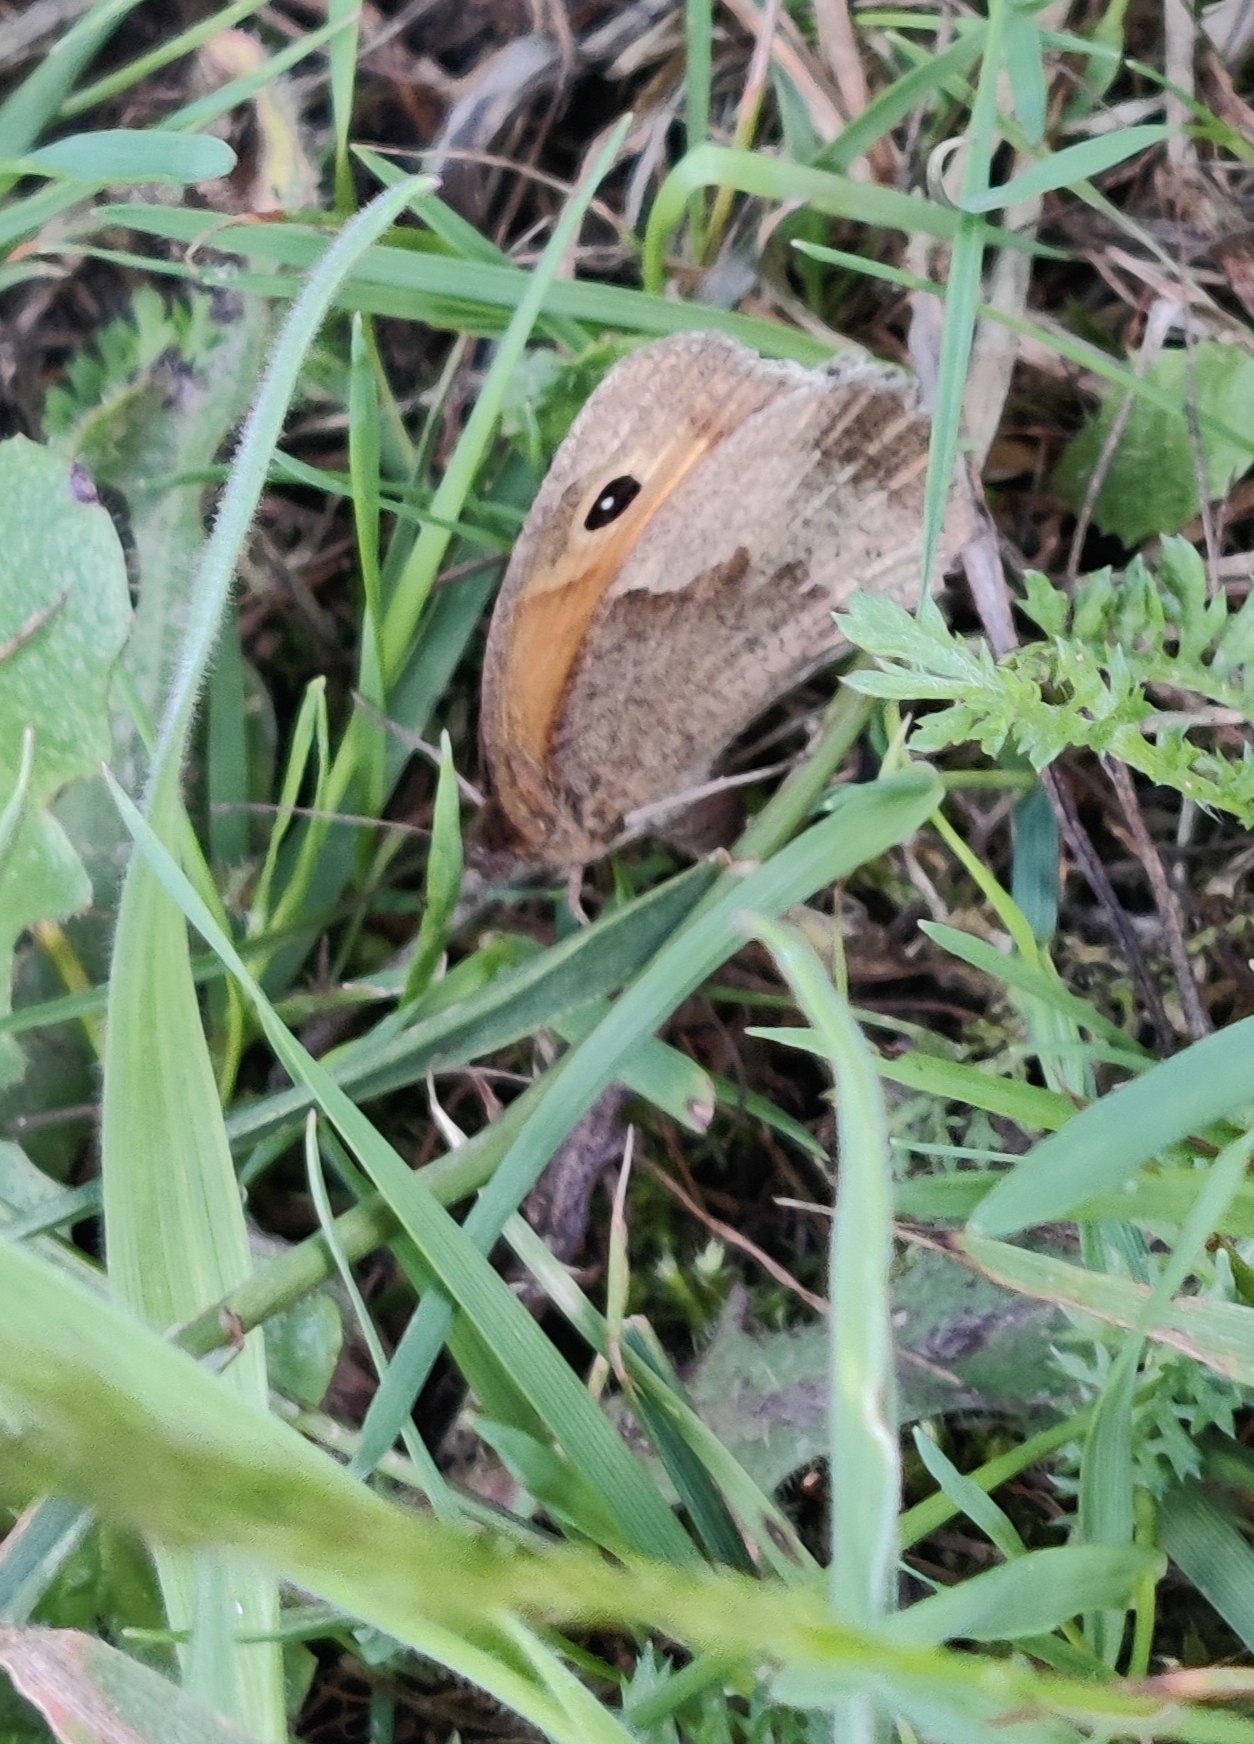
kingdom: Animalia
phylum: Arthropoda
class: Insecta
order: Lepidoptera
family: Nymphalidae
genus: Maniola
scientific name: Maniola jurtina
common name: Græsrandøje
